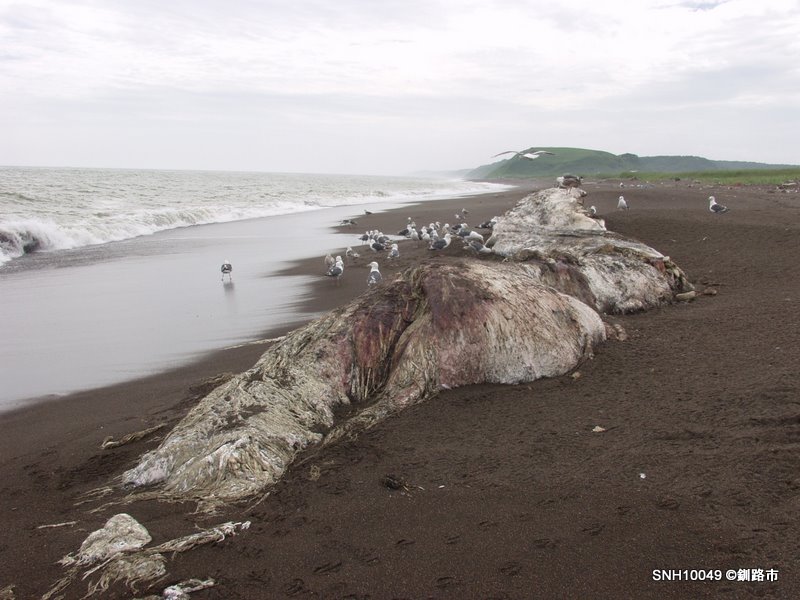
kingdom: Animalia
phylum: Chordata
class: Mammalia
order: Cetacea
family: Physeteridae
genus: Physeter
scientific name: Physeter macrocephalus
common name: Sperm whale
